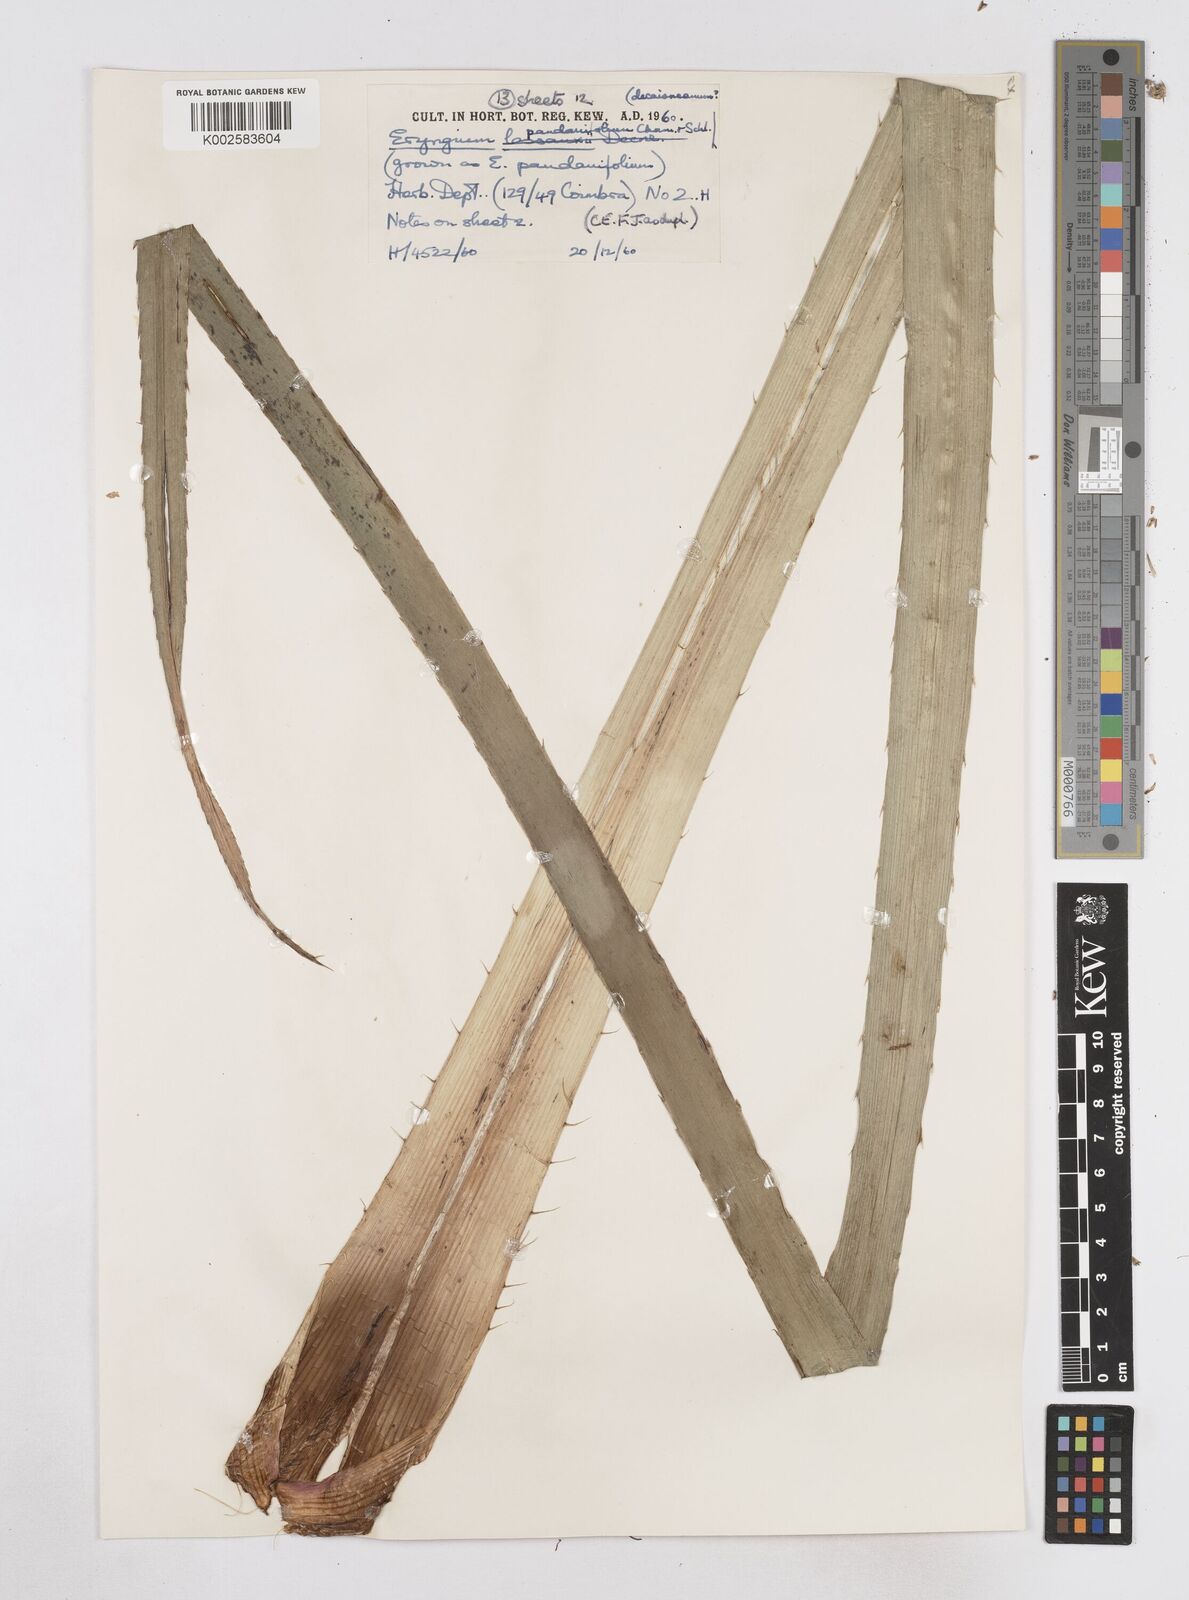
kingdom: Plantae
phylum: Tracheophyta
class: Magnoliopsida
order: Apiales
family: Apiaceae
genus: Eryngium
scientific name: Eryngium pandanifolium
